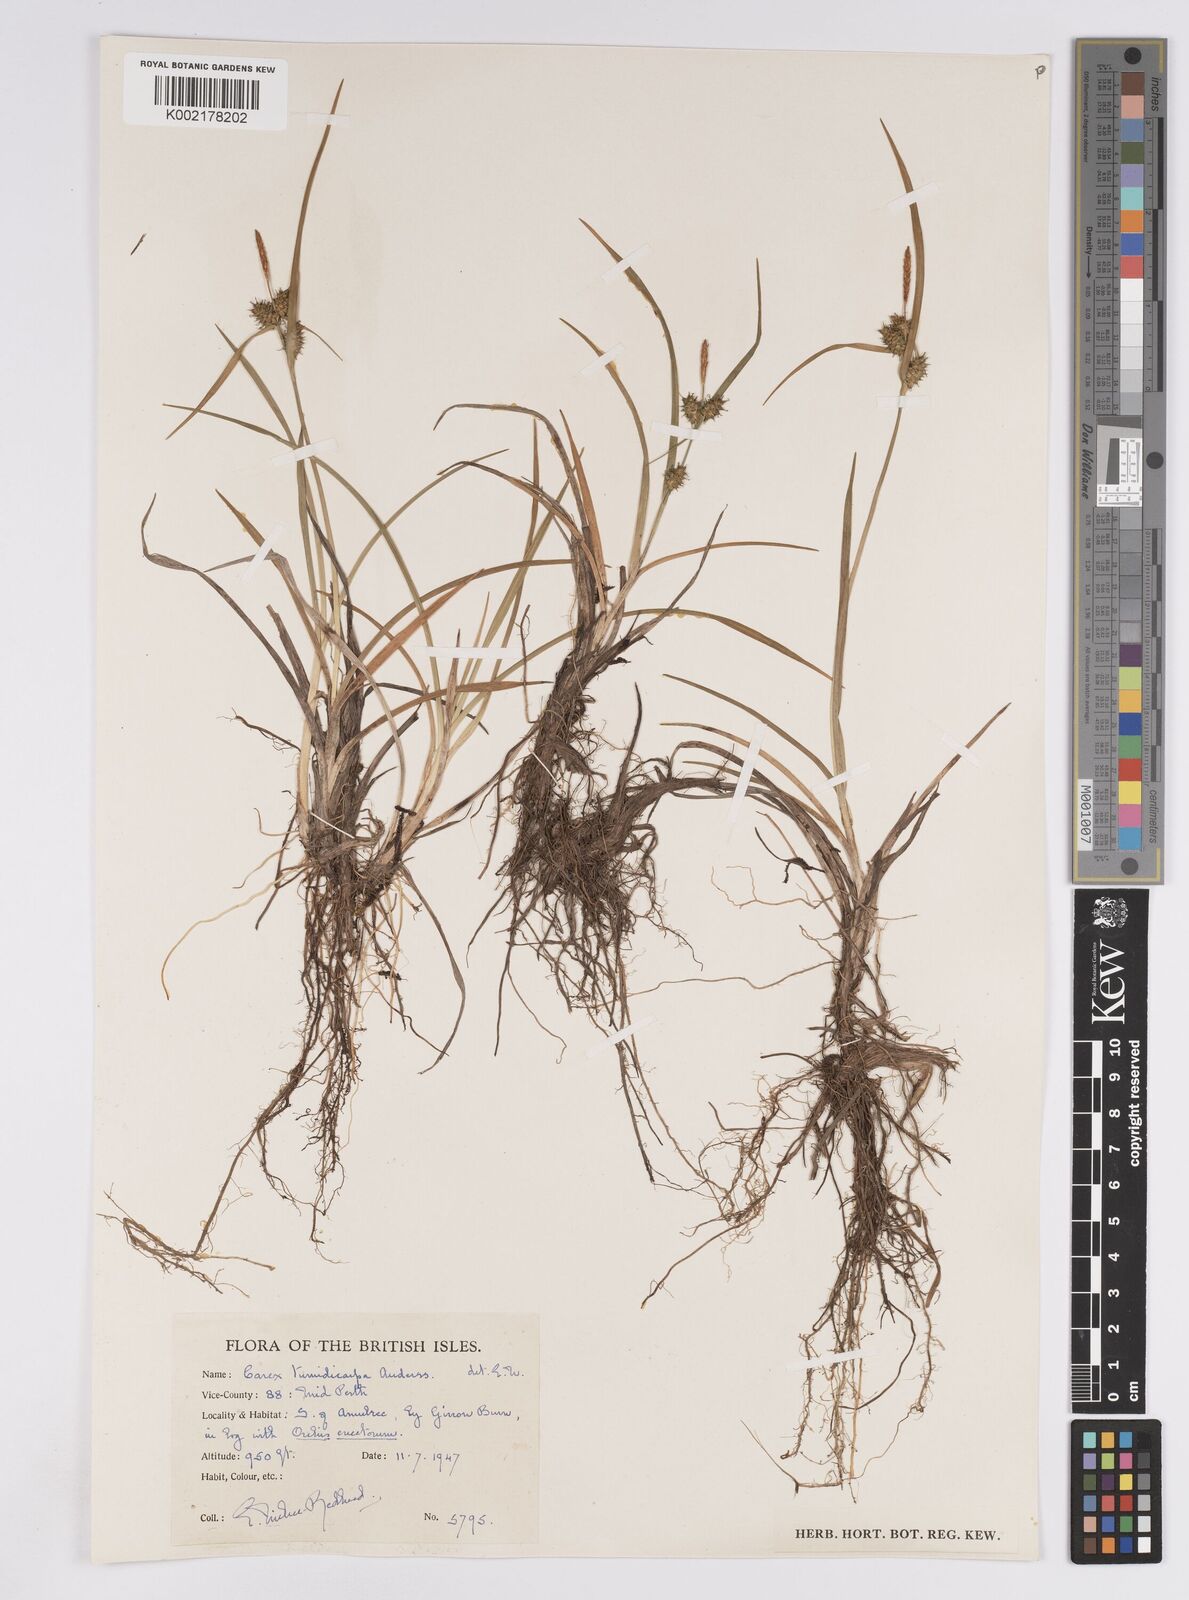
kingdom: Plantae
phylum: Tracheophyta
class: Liliopsida
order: Poales
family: Cyperaceae
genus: Carex
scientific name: Carex demissa
